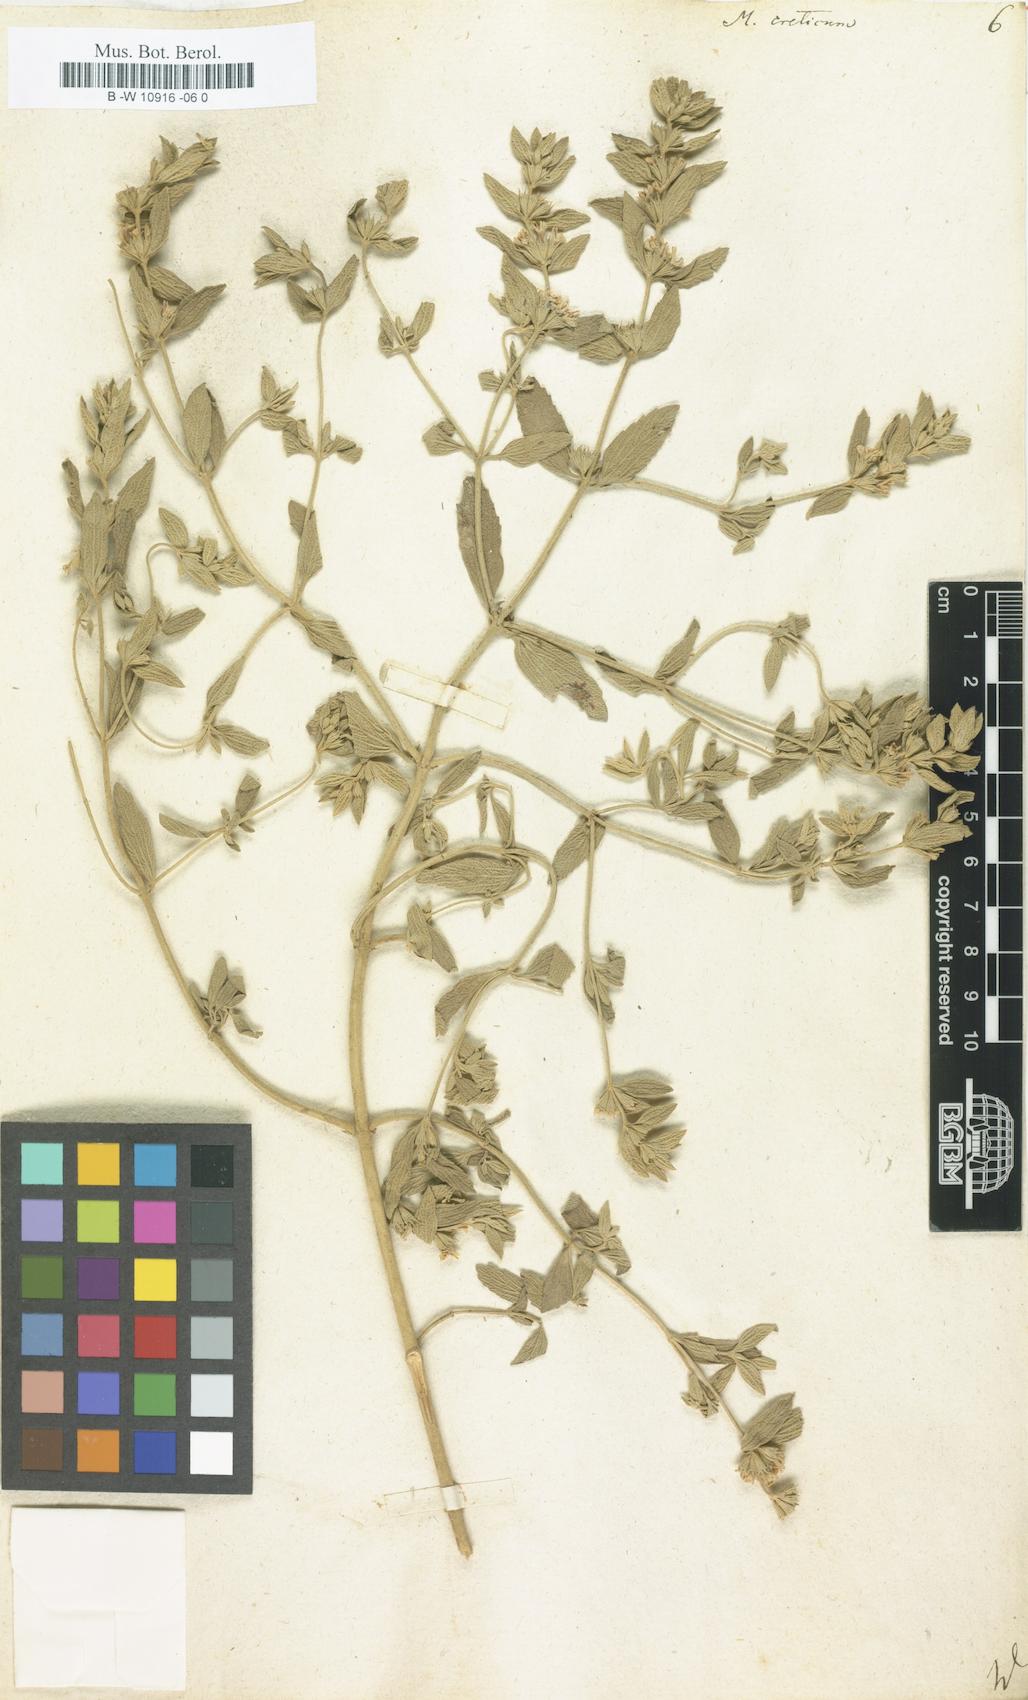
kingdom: Plantae
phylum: Tracheophyta
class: Magnoliopsida
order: Lamiales
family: Lamiaceae
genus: Marrubium
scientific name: Marrubium peregrinum
